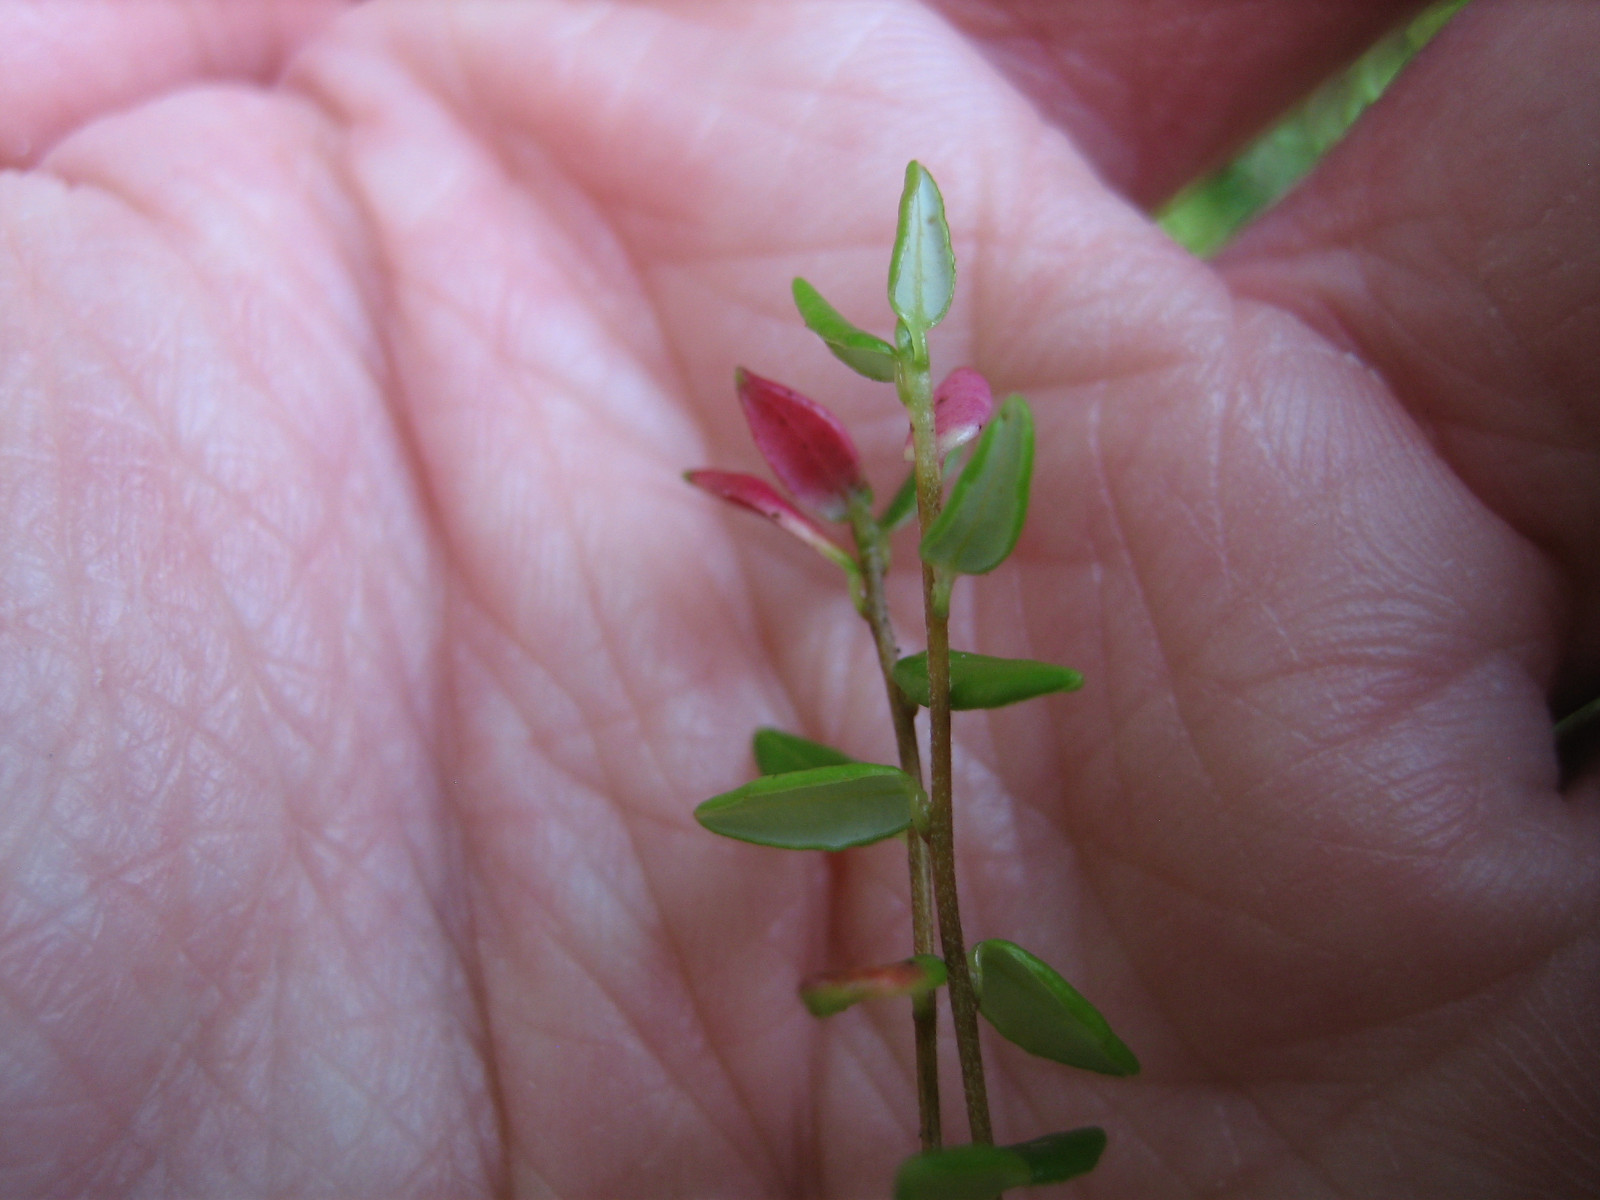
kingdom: Fungi
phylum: Basidiomycota
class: Exobasidiomycetes
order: Exobasidiales
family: Exobasidiaceae
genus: Exobasidium
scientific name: Exobasidium rostrupii
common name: tranebærblad-bøllesvamp
